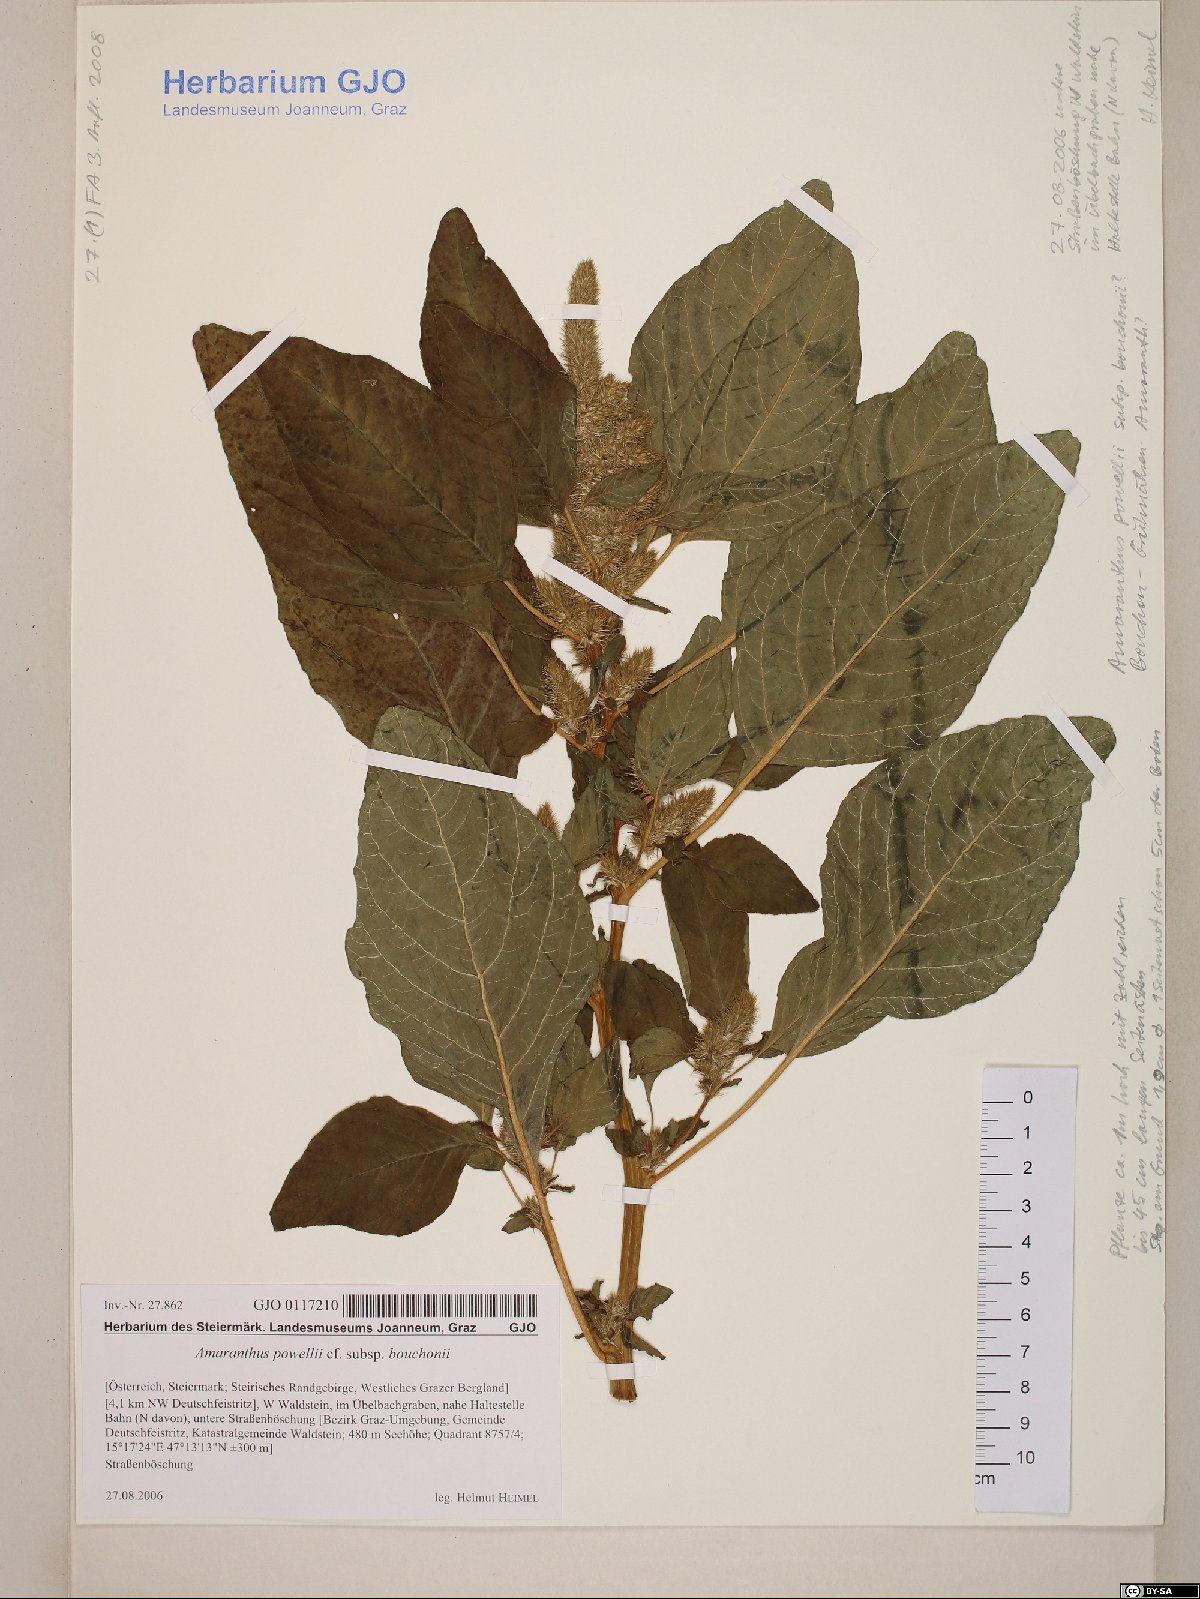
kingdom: Plantae
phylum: Tracheophyta
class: Magnoliopsida
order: Caryophyllales
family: Amaranthaceae
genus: Amaranthus
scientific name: Amaranthus bouchonii
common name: Indehiscent amaranth
